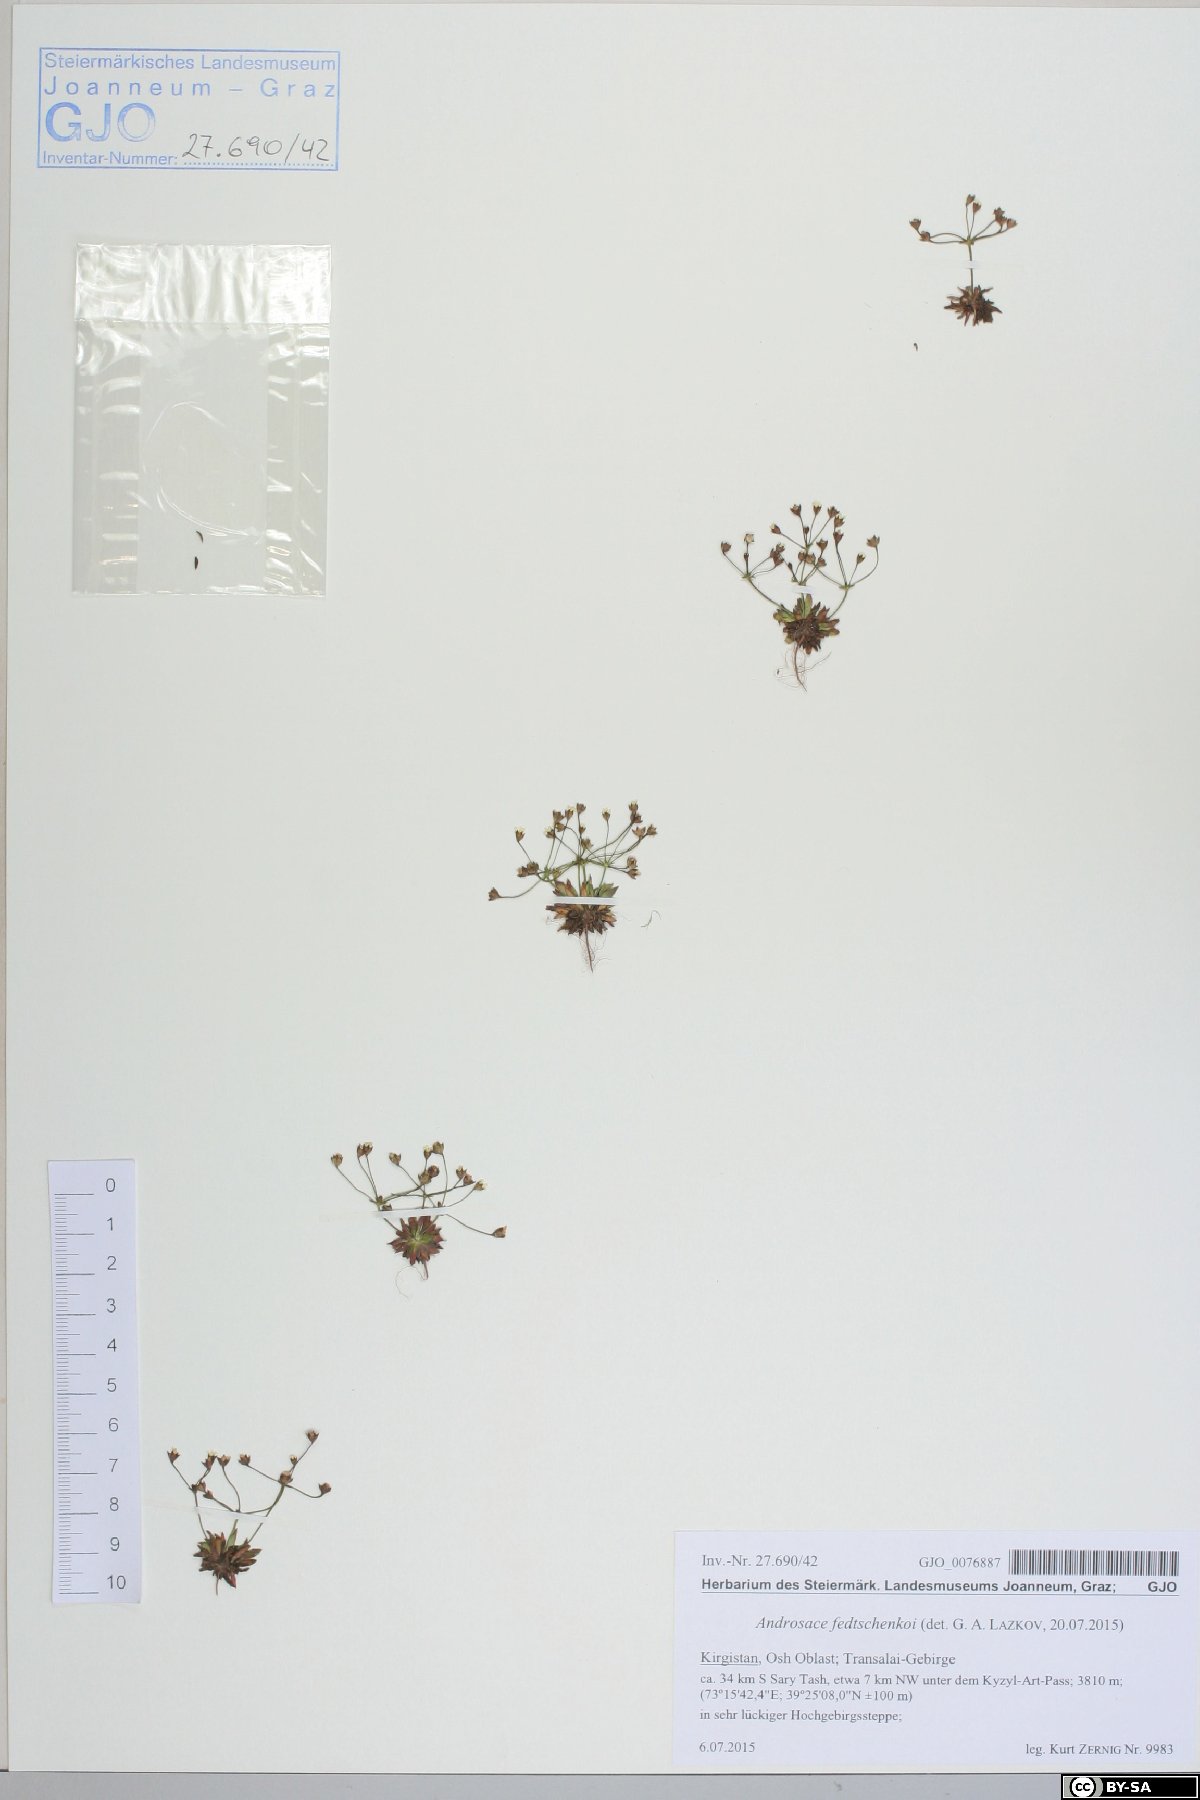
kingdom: Plantae
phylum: Tracheophyta
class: Magnoliopsida
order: Ericales
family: Primulaceae
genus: Androsace
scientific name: Androsace fedtschenkoi
